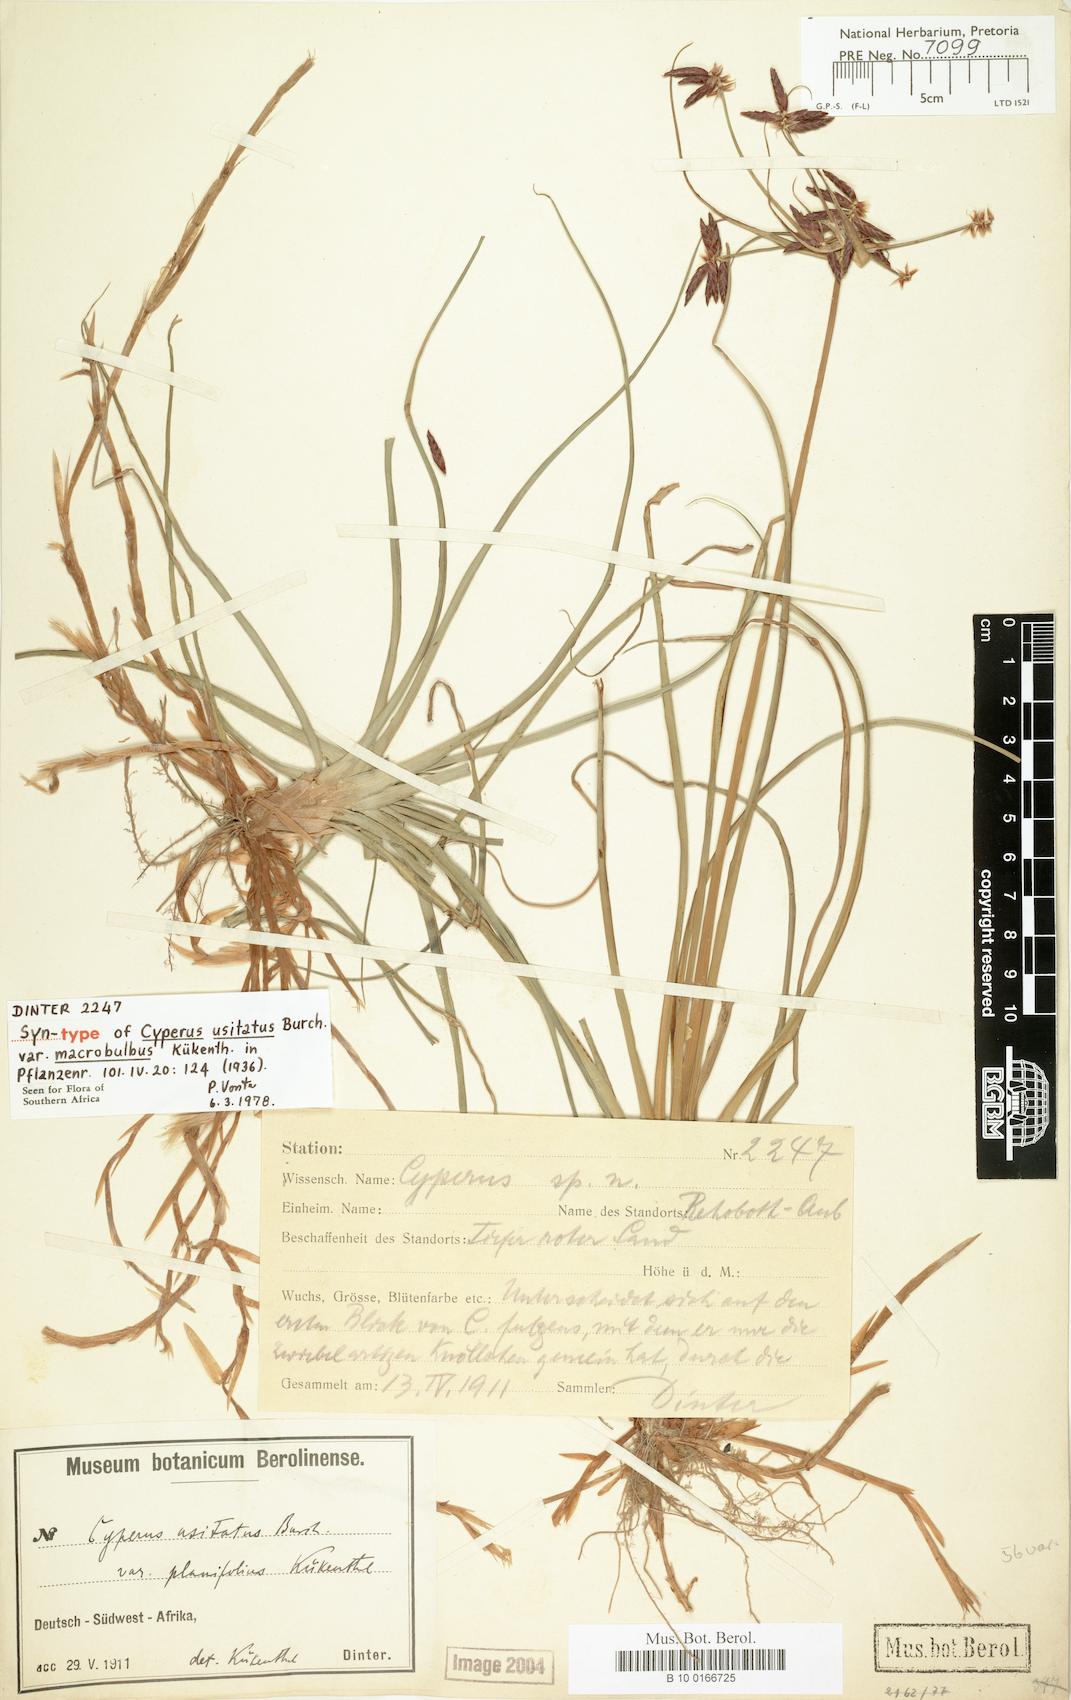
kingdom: Plantae
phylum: Tracheophyta
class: Liliopsida
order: Poales
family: Cyperaceae
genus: Cyperus
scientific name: Cyperus usitatus
